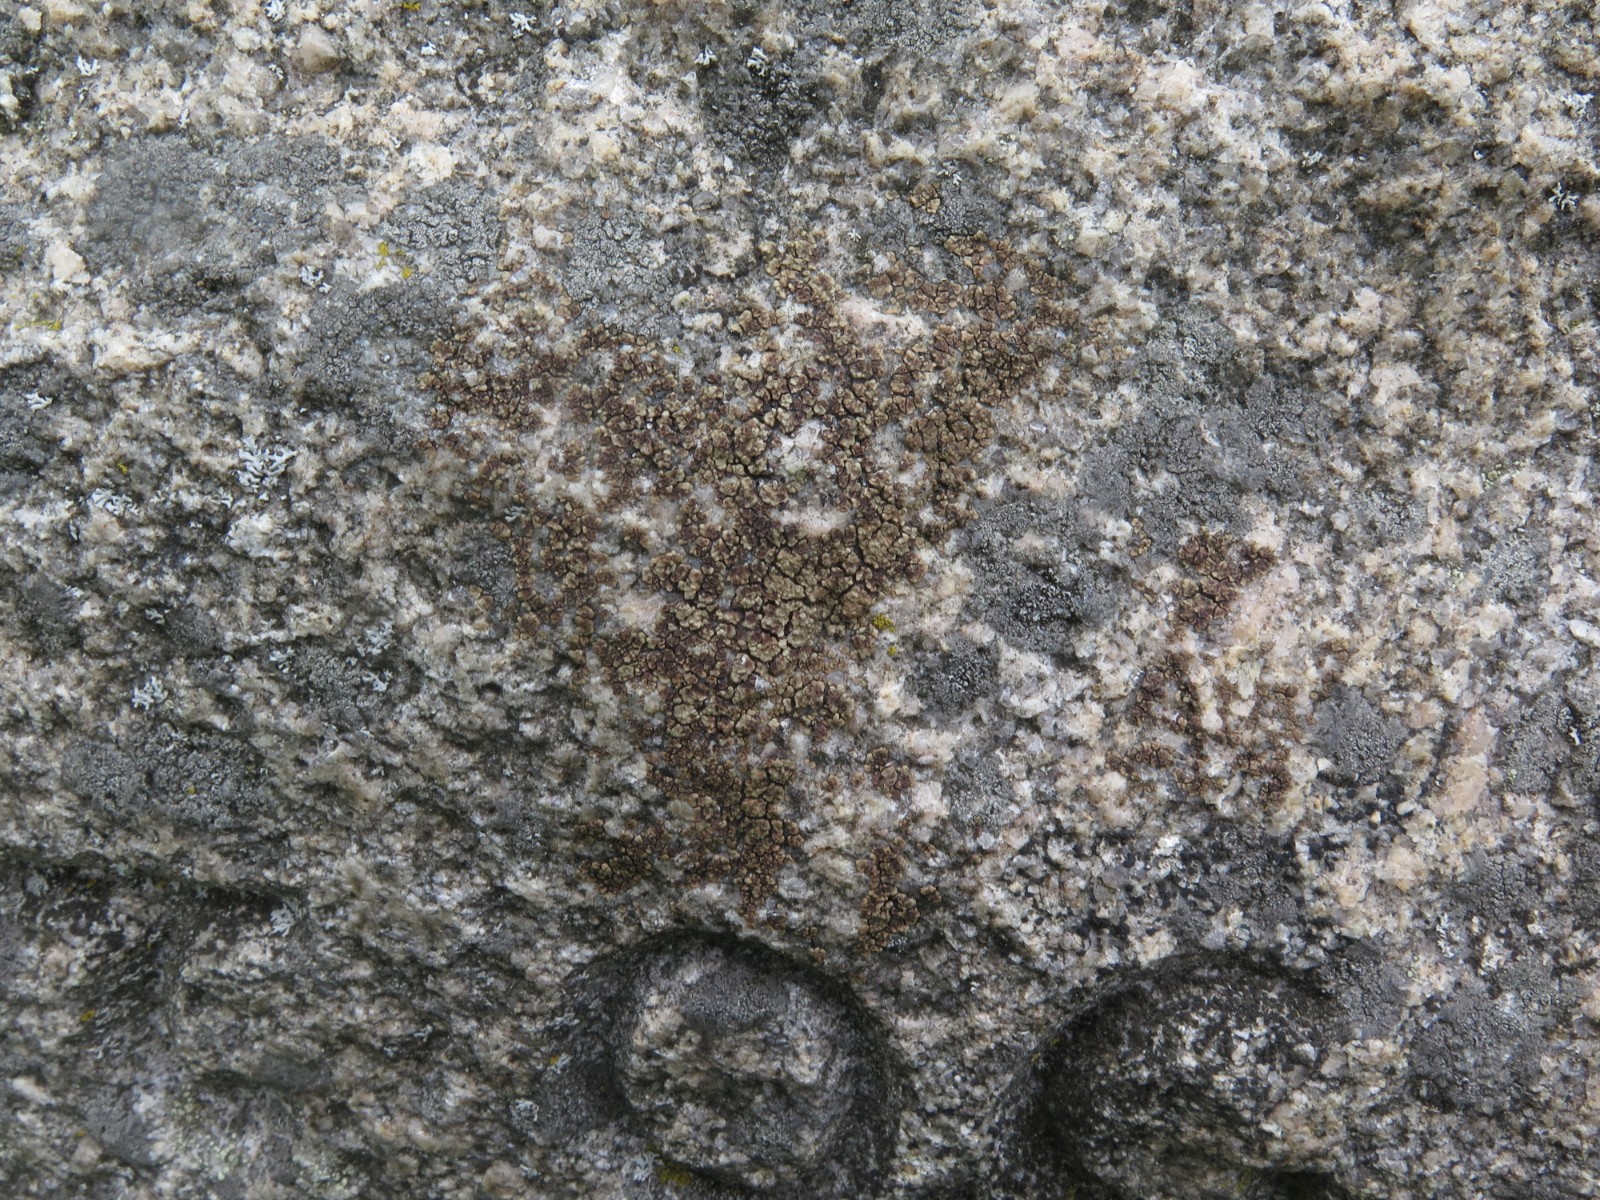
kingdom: Fungi
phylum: Ascomycota
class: Lecanoromycetes
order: Acarosporales
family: Acarosporaceae
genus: Acarospora
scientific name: Acarospora fuscata
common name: brun småsporelav
